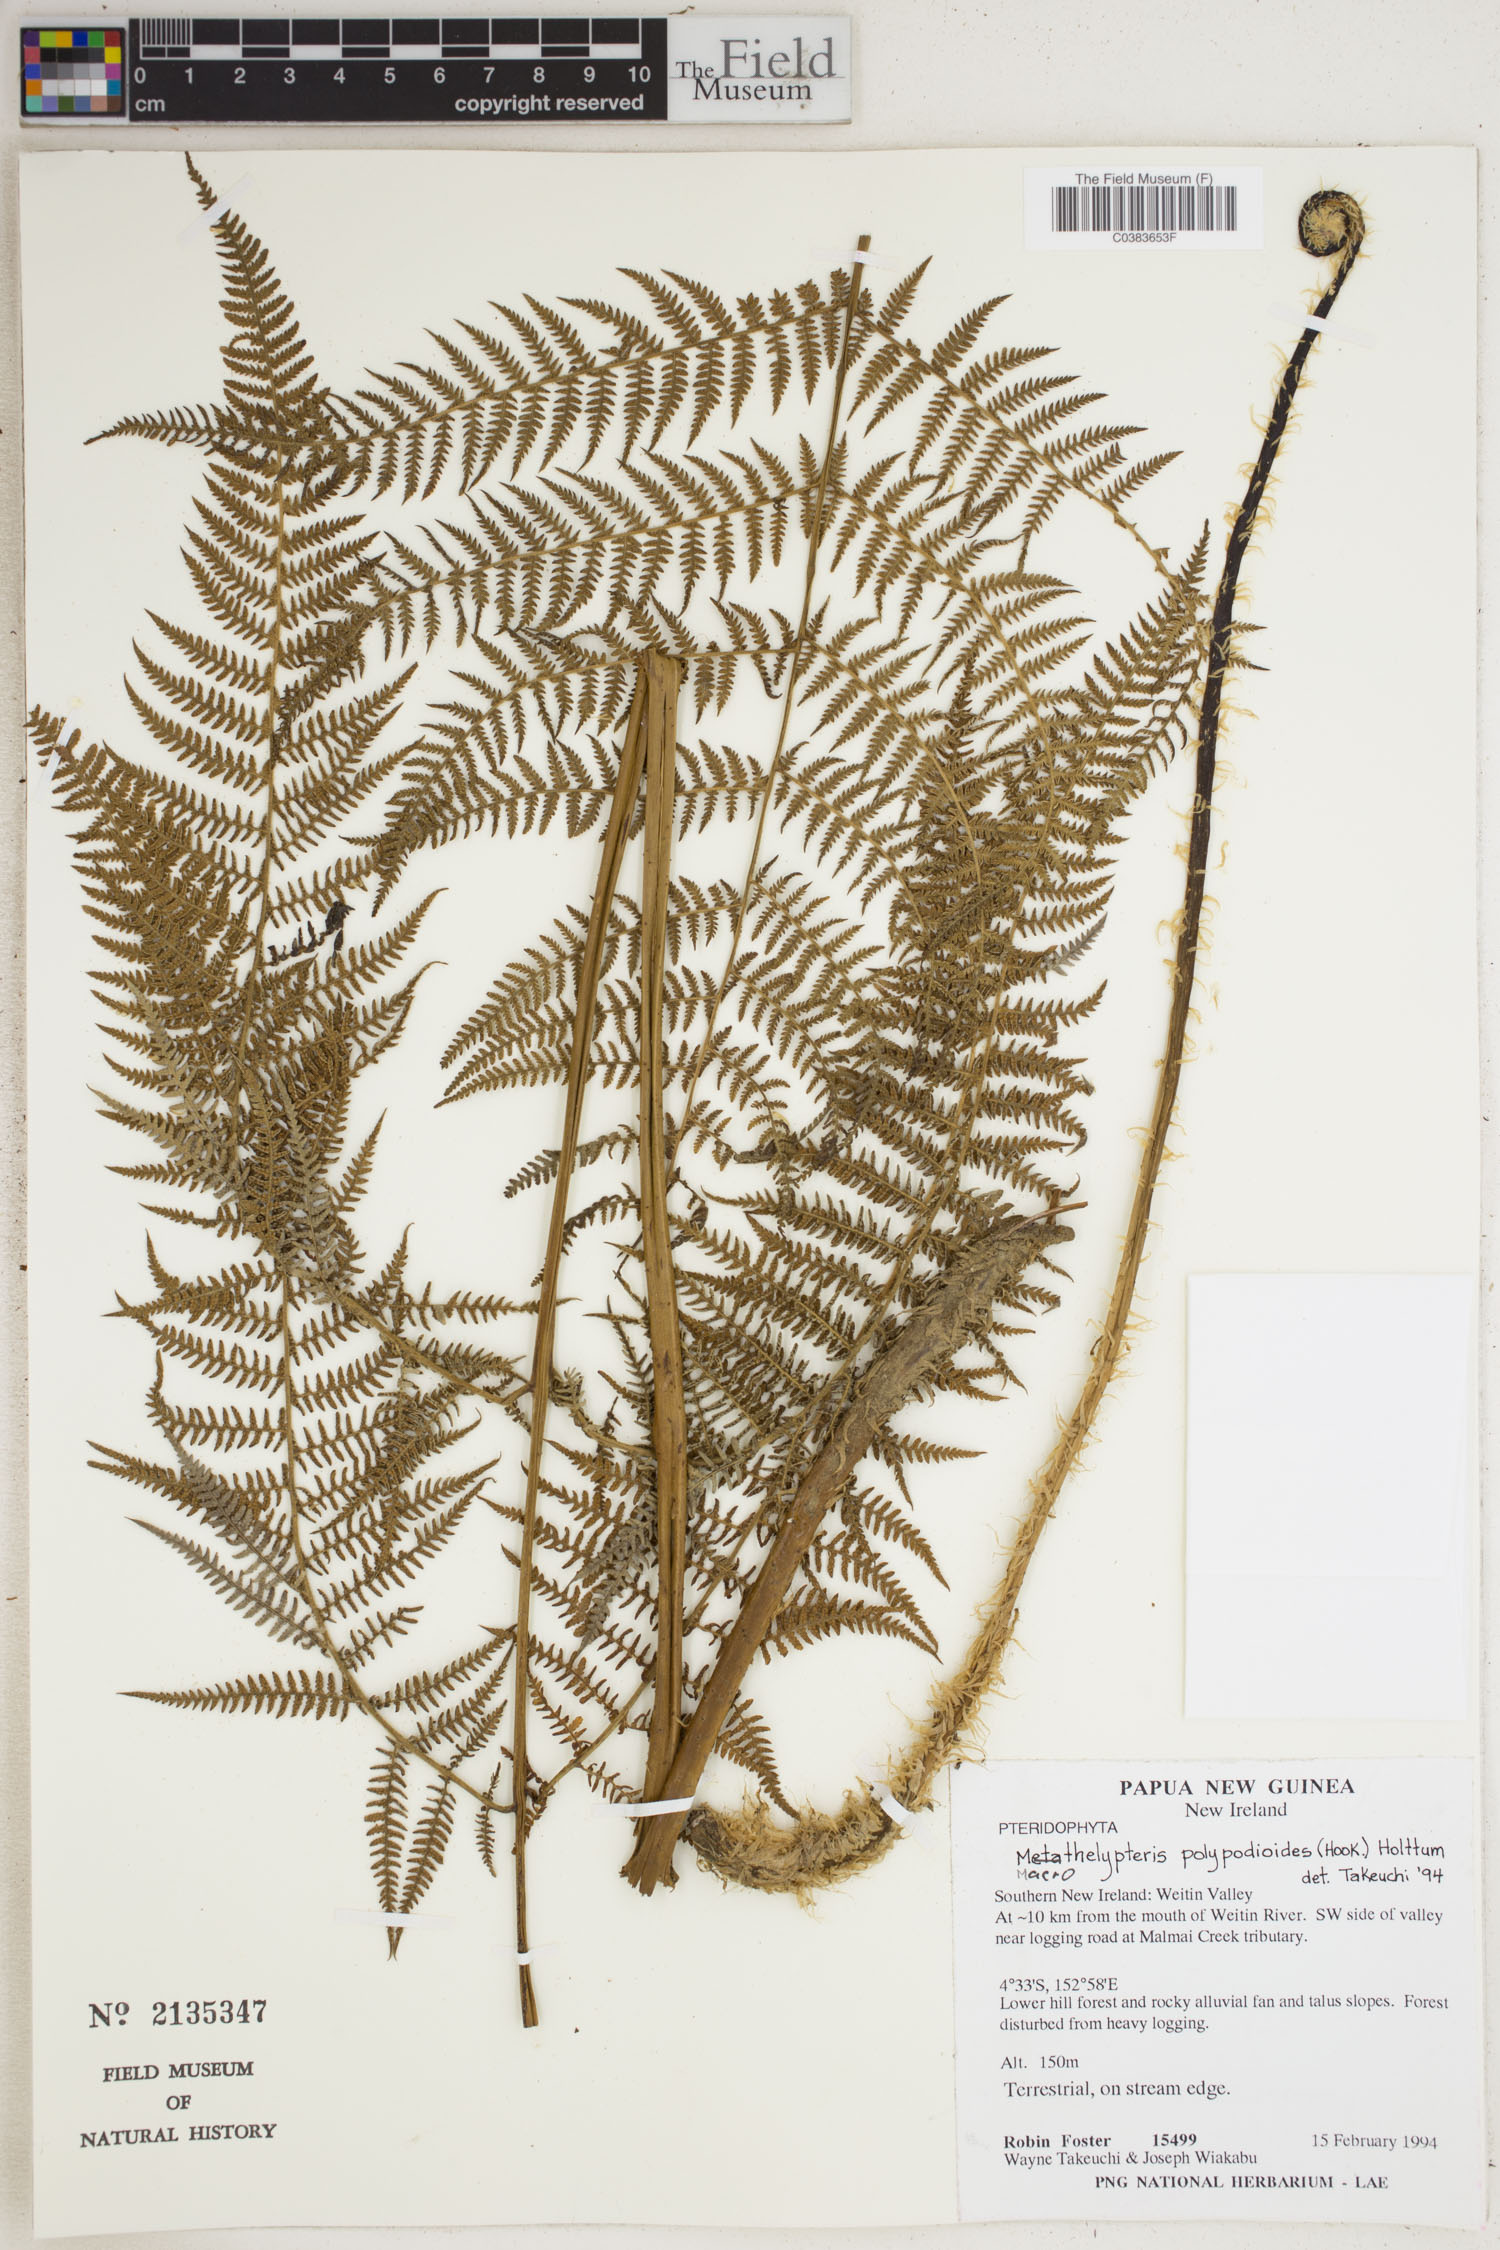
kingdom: Plantae
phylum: Tracheophyta
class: Polypodiopsida
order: Polypodiales
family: Thelypteridaceae
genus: Macrothelypteris
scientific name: Macrothelypteris polypodioides
